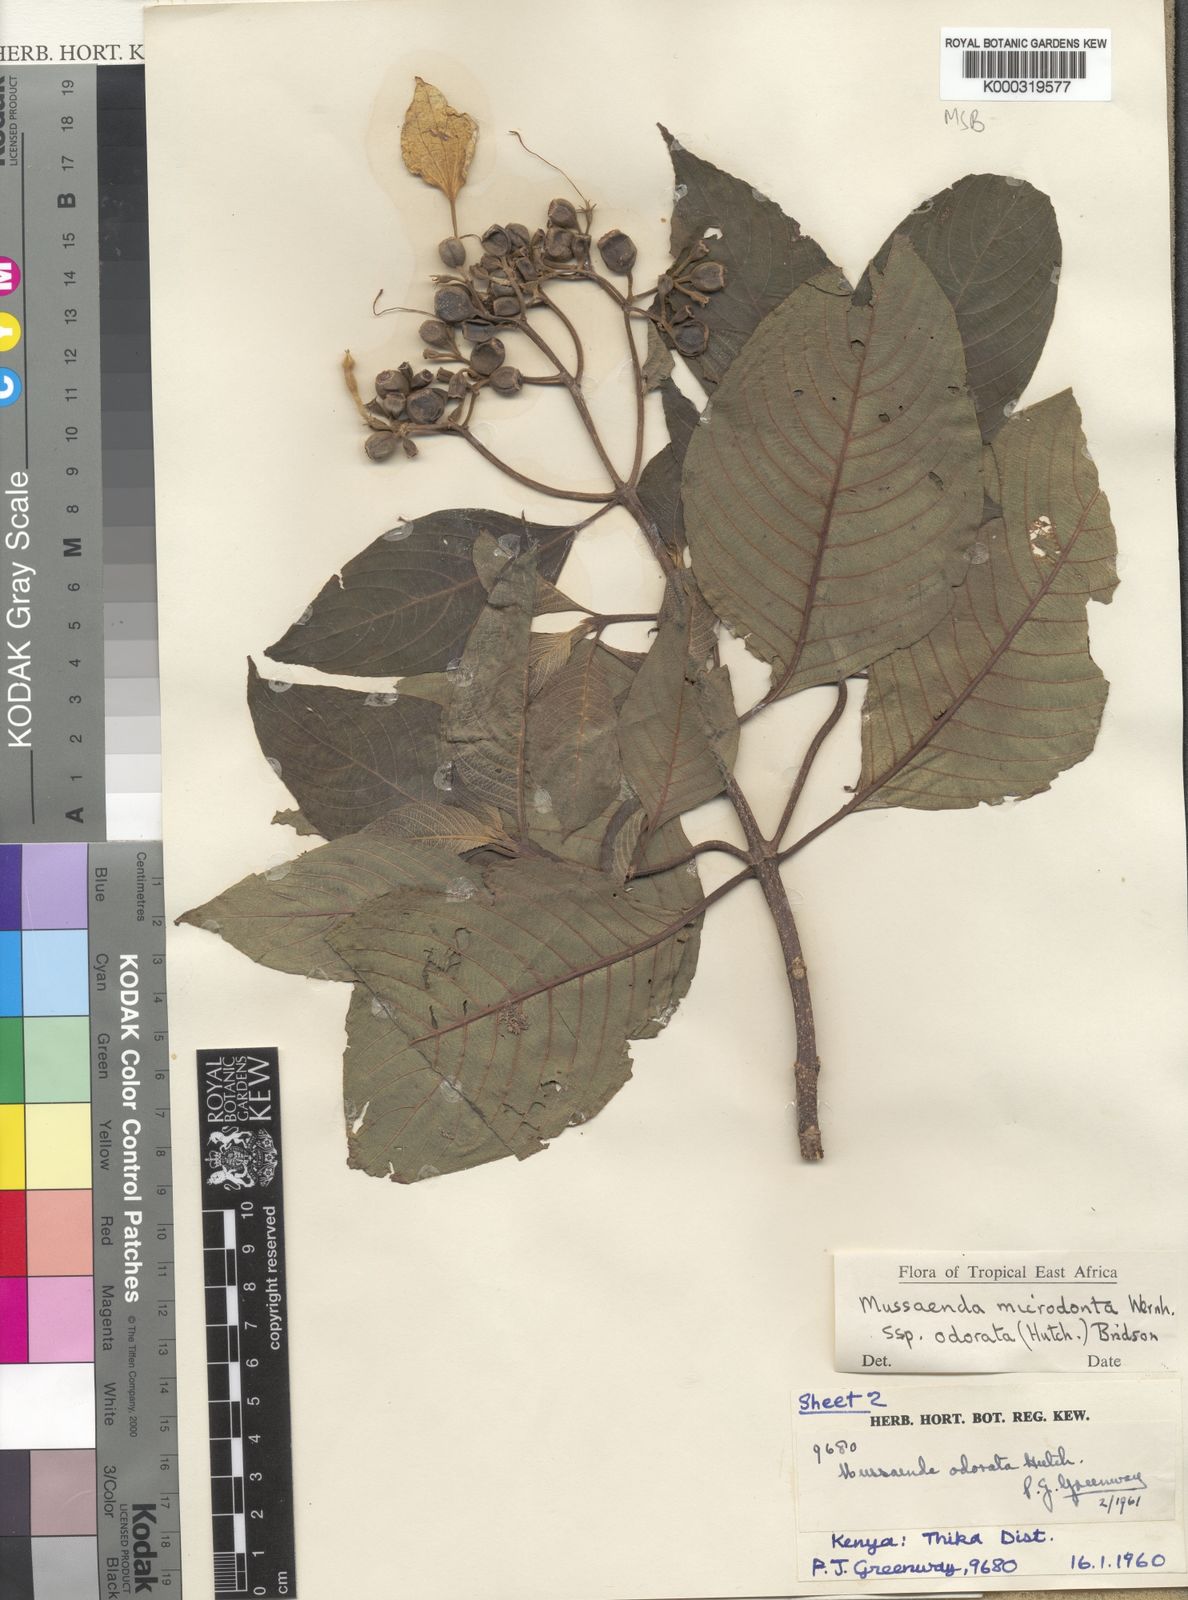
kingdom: Plantae
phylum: Tracheophyta
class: Magnoliopsida
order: Gentianales
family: Rubiaceae
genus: Mussaenda
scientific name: Mussaenda microdonta
